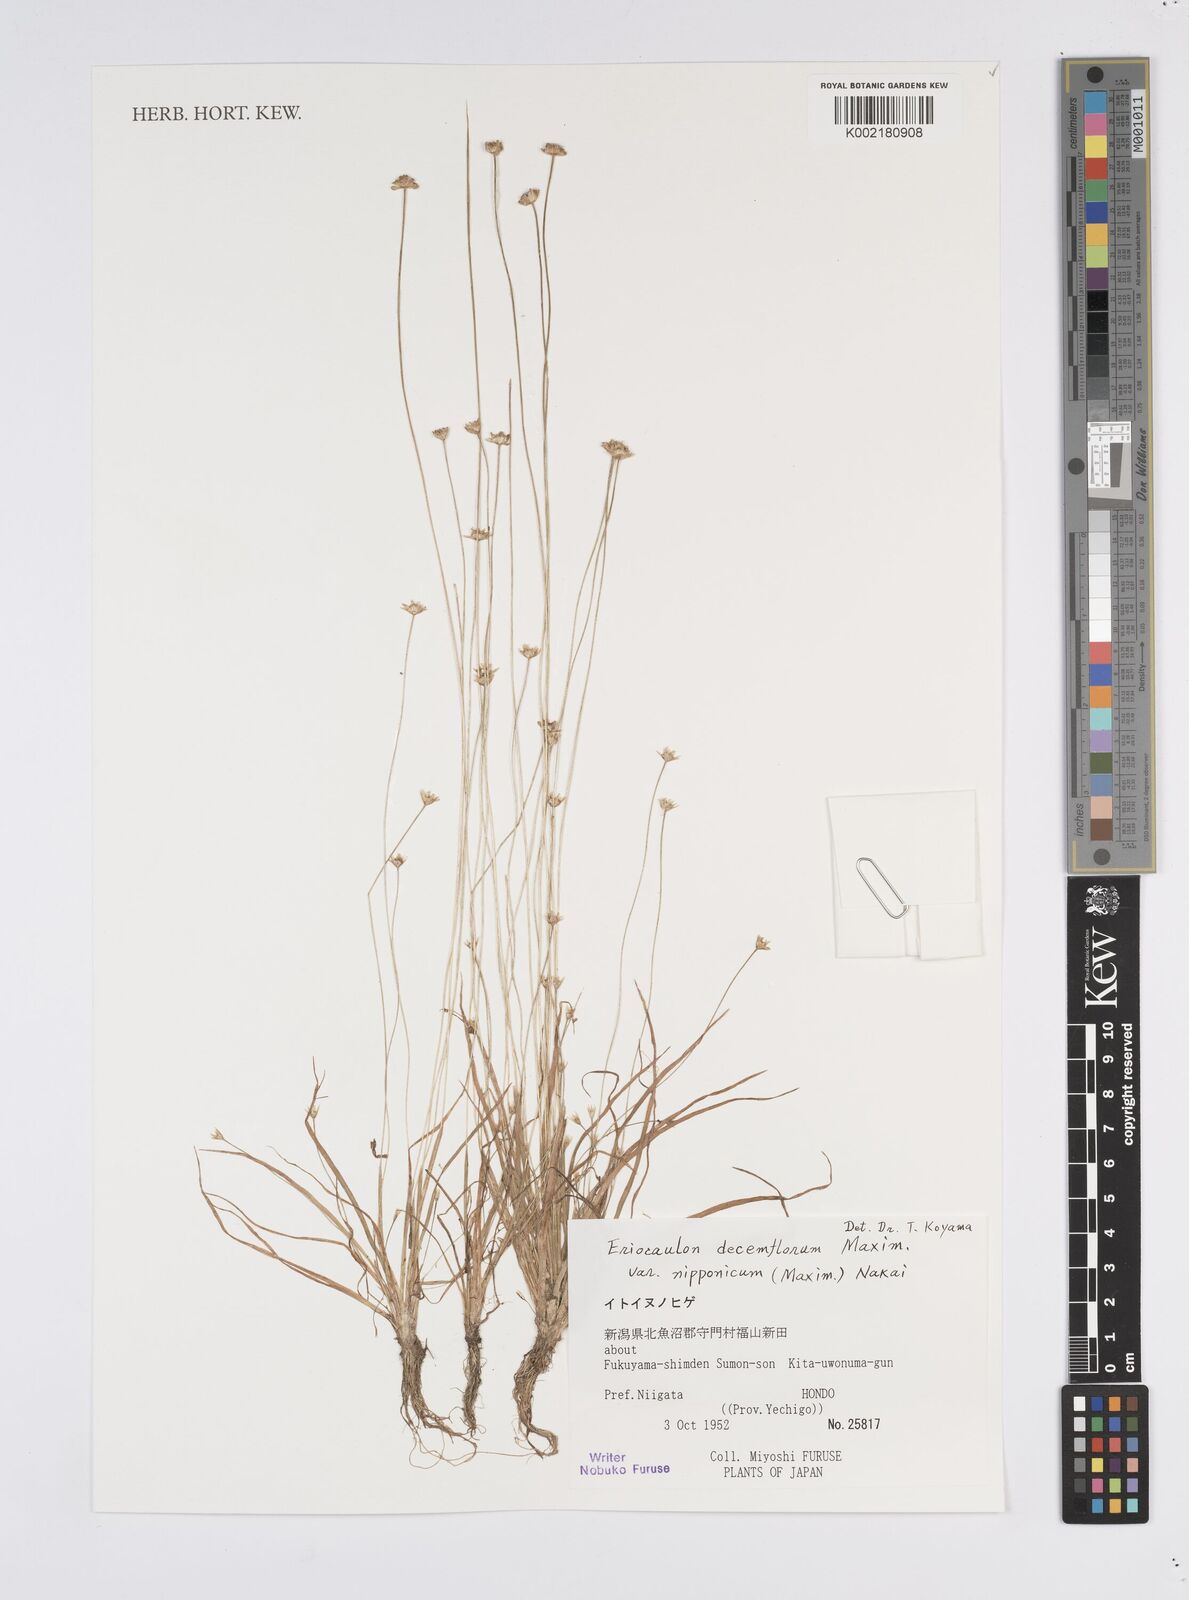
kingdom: Plantae
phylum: Tracheophyta
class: Liliopsida
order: Poales
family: Eriocaulaceae
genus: Eriocaulon
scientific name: Eriocaulon decemflorum
